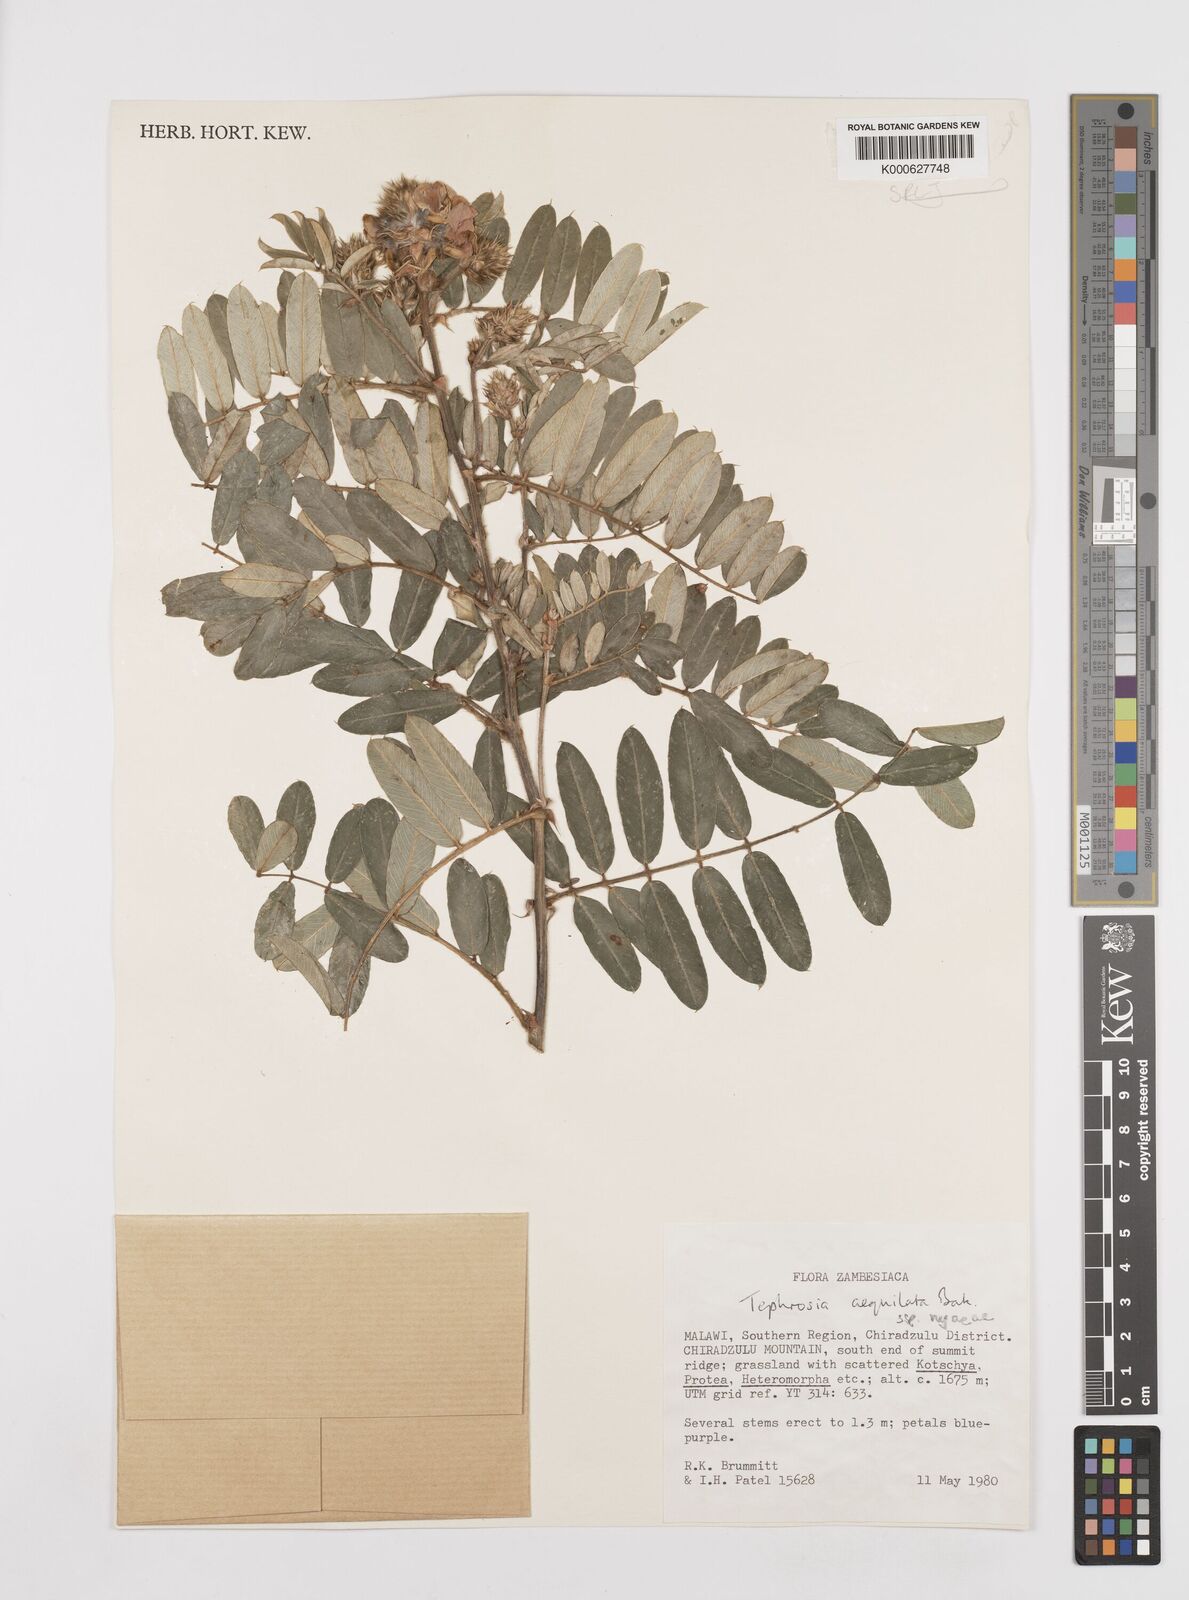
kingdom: Plantae
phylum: Tracheophyta
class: Magnoliopsida
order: Fabales
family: Fabaceae
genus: Tephrosia
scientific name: Tephrosia
